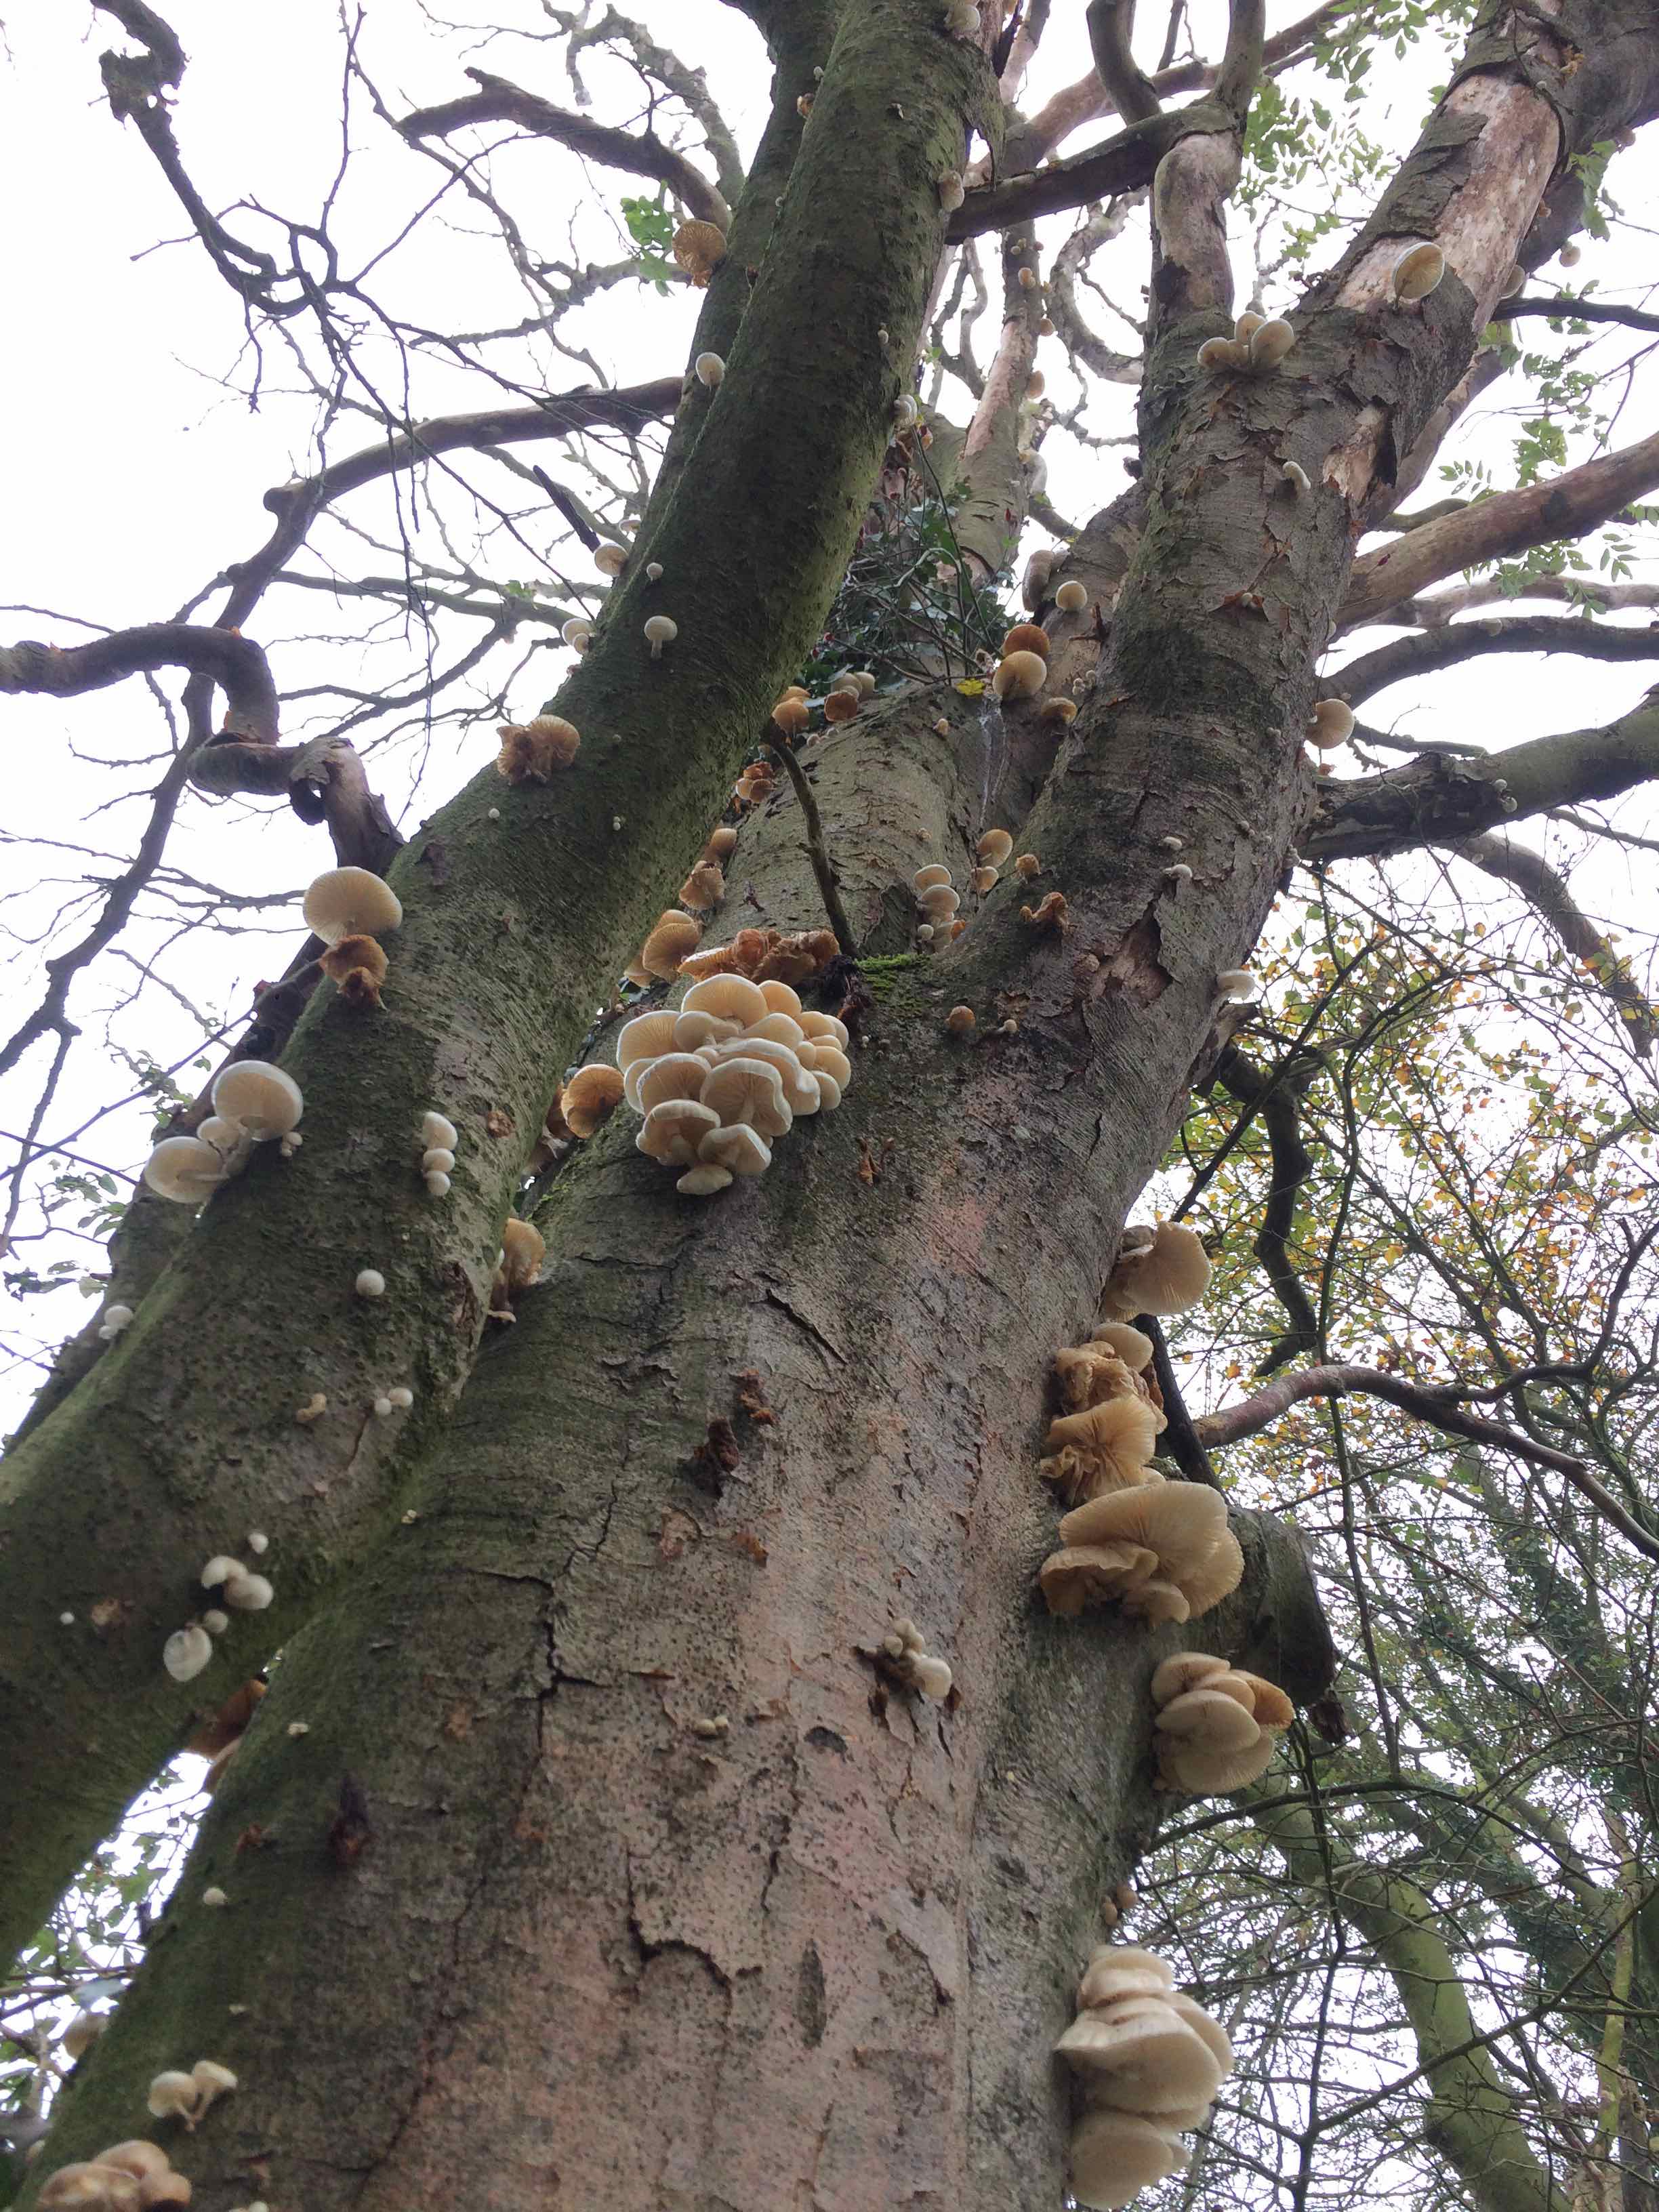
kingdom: Fungi
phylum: Basidiomycota
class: Agaricomycetes
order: Agaricales
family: Physalacriaceae
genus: Mucidula
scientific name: Mucidula mucida
